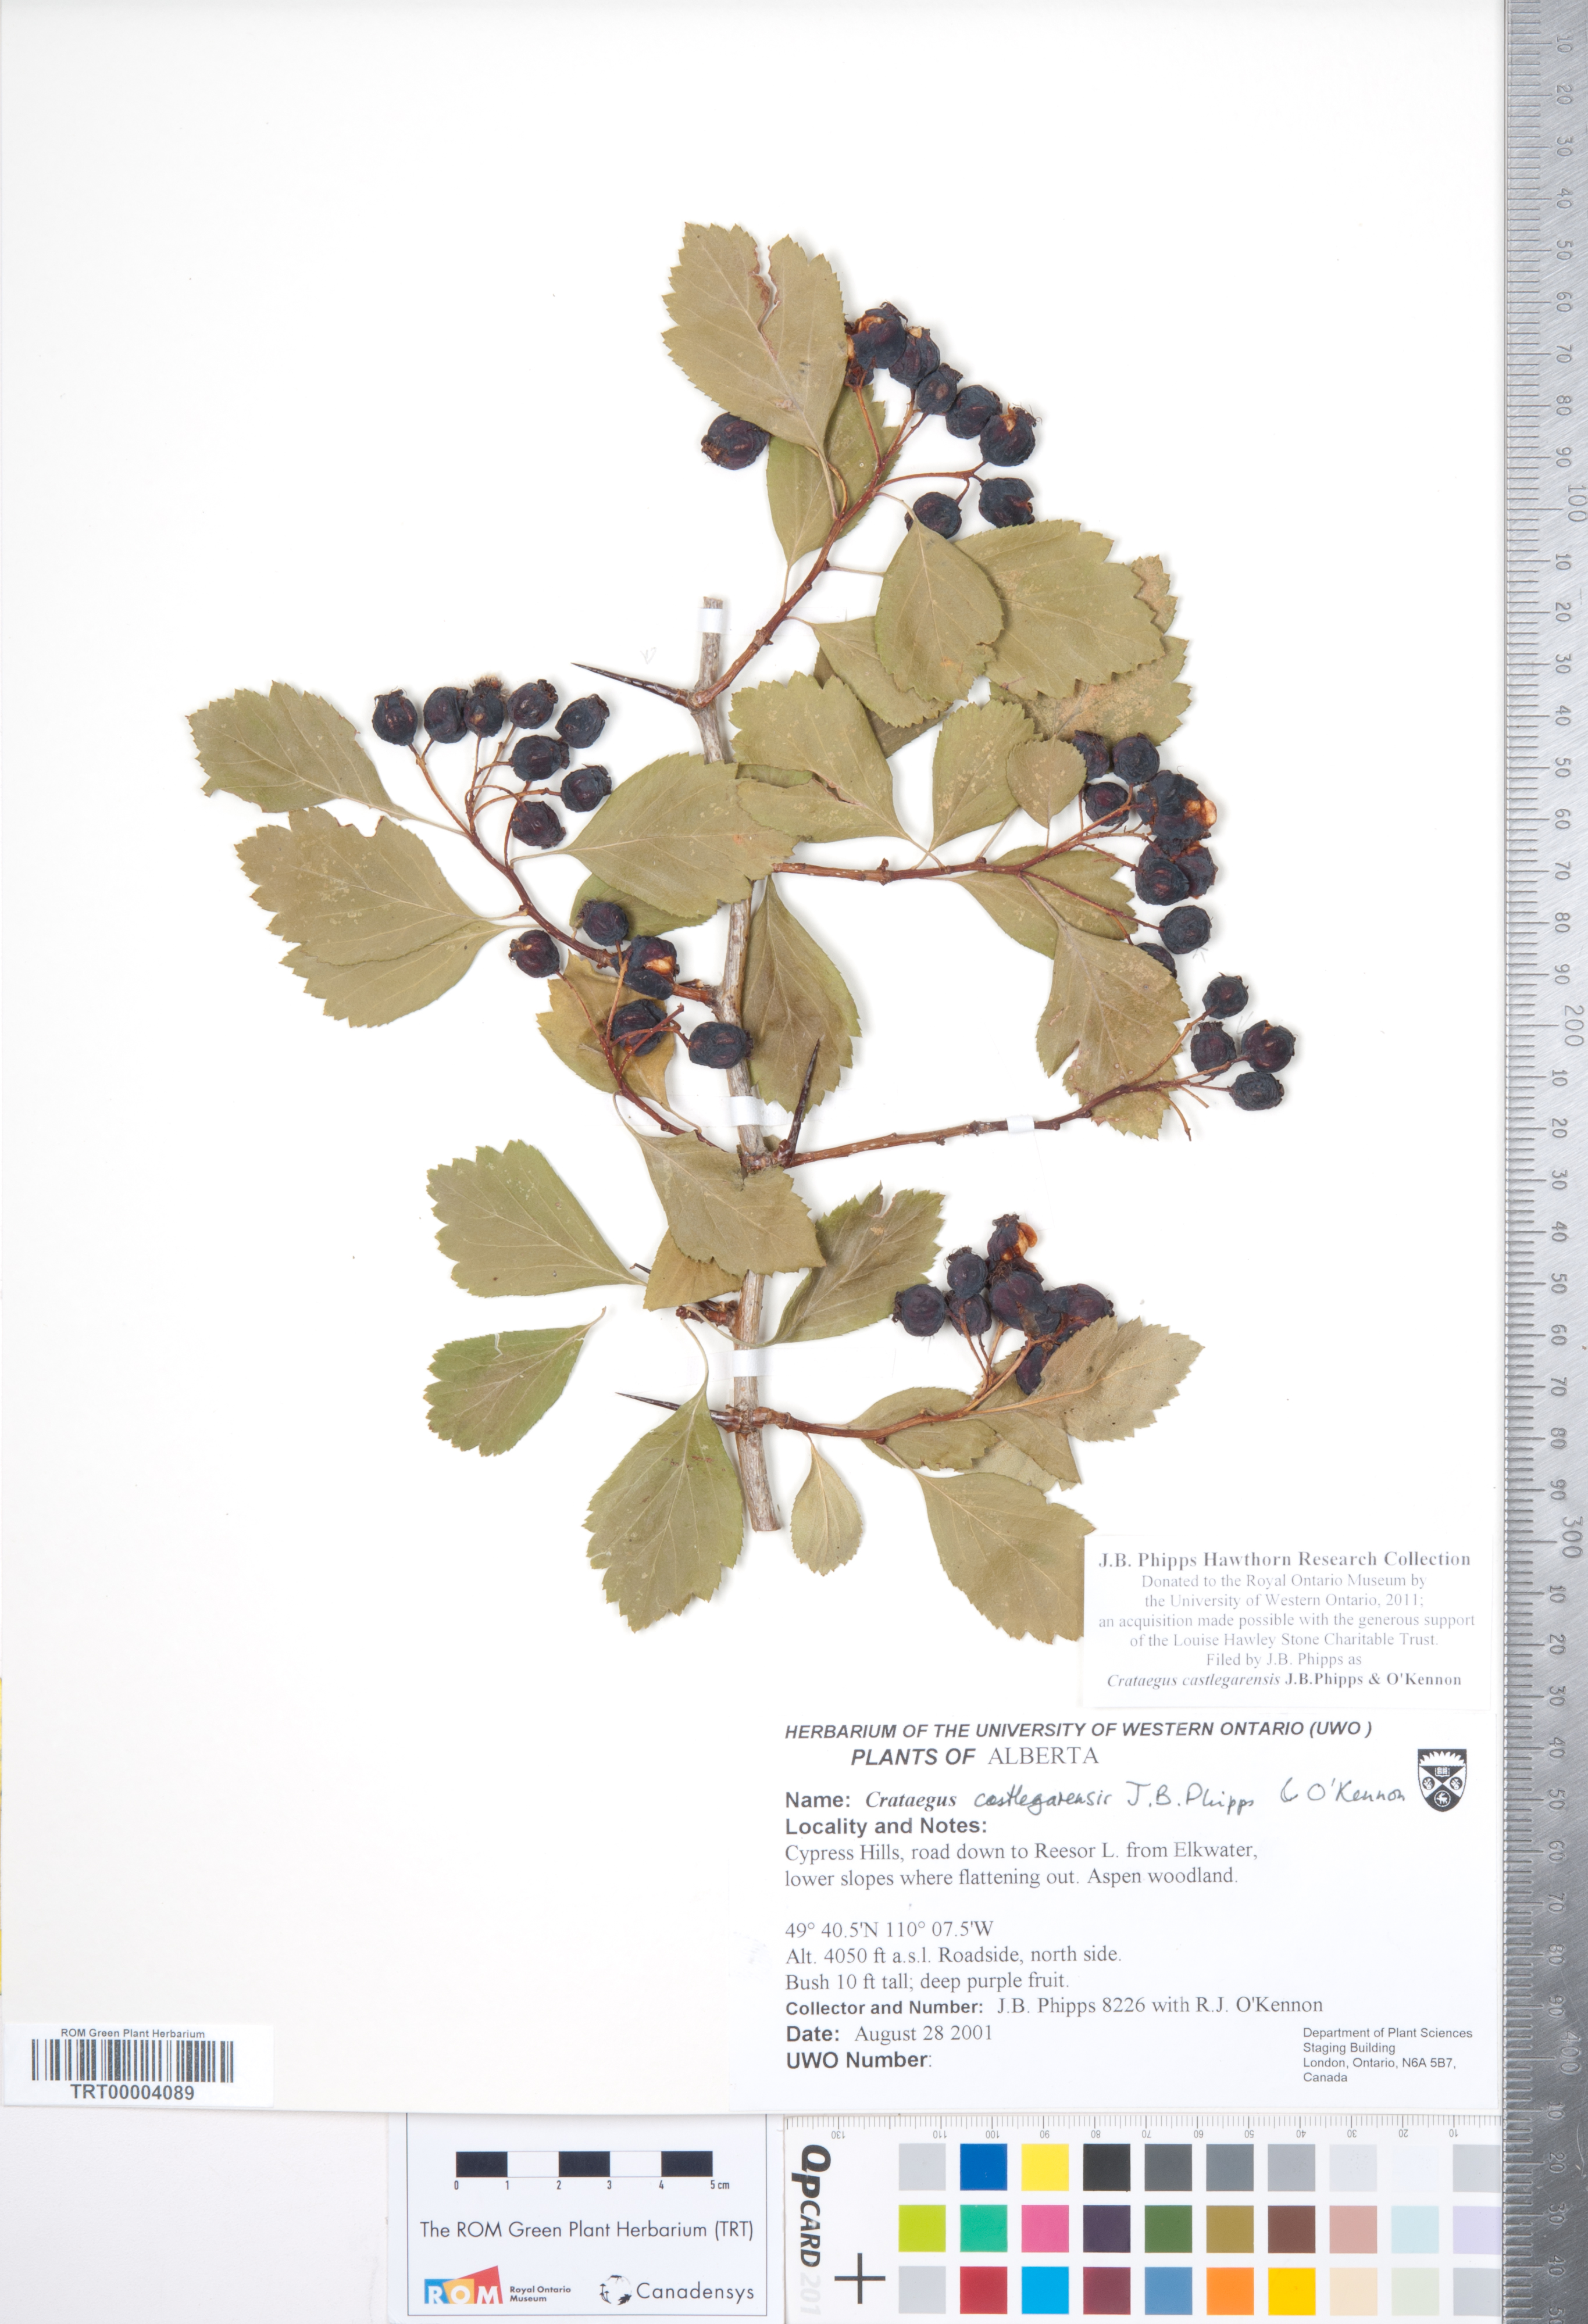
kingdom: Plantae
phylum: Tracheophyta
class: Magnoliopsida
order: Rosales
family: Rosaceae
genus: Crataegus
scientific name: Crataegus castlegarensis
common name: Castlegar hawthorn
